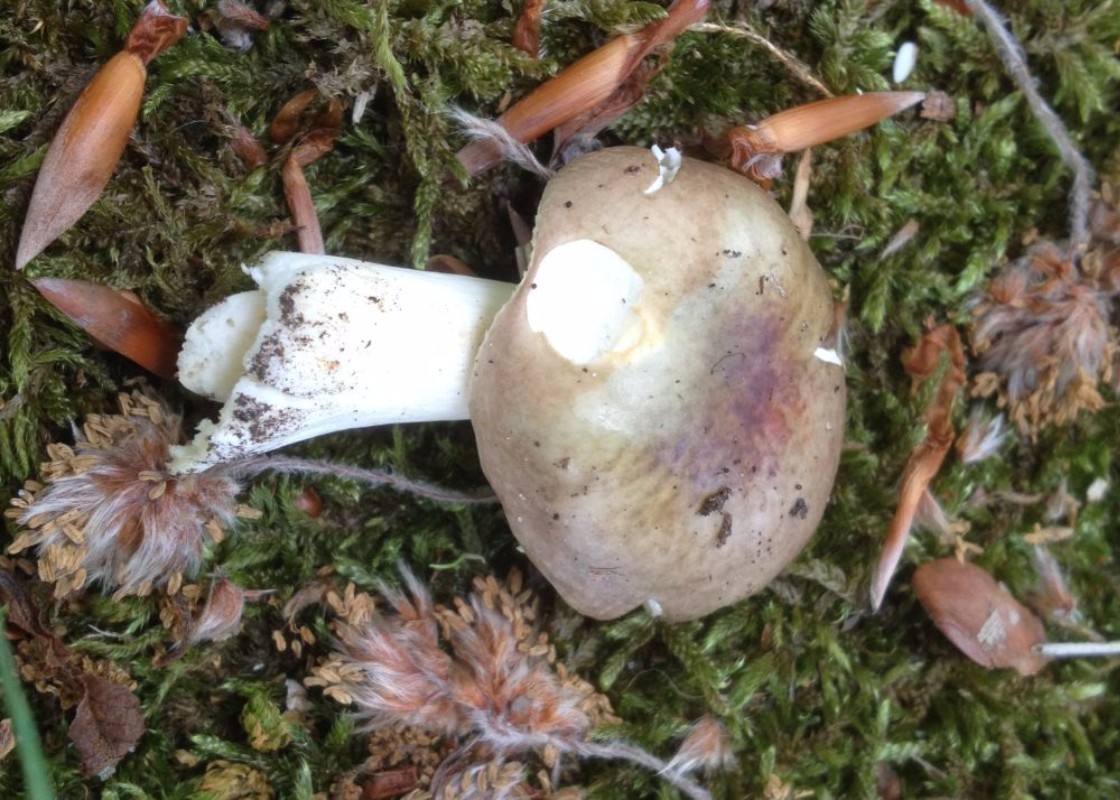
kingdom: Fungi
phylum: Basidiomycota
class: Agaricomycetes
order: Russulales
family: Russulaceae
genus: Russula
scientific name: Russula cyanoxantha
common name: broget skørhat
